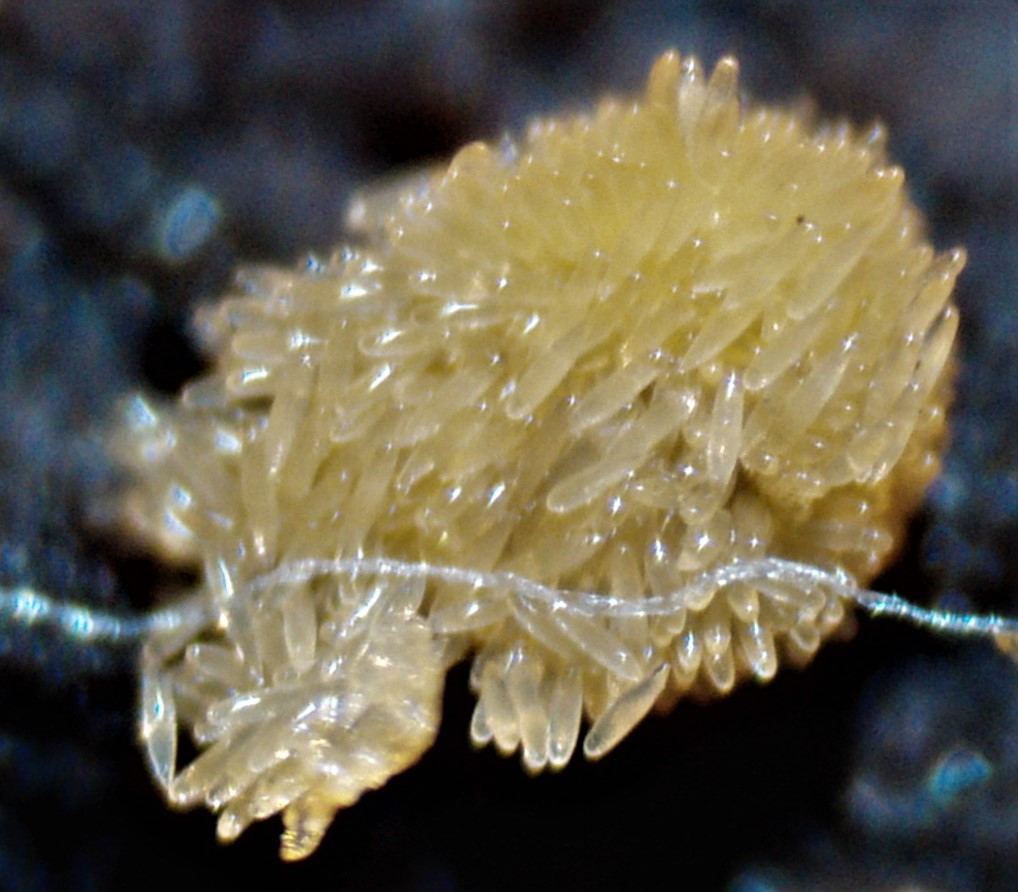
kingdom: Fungi
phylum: Ascomycota
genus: Bactridium
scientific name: Bactridium flavum
